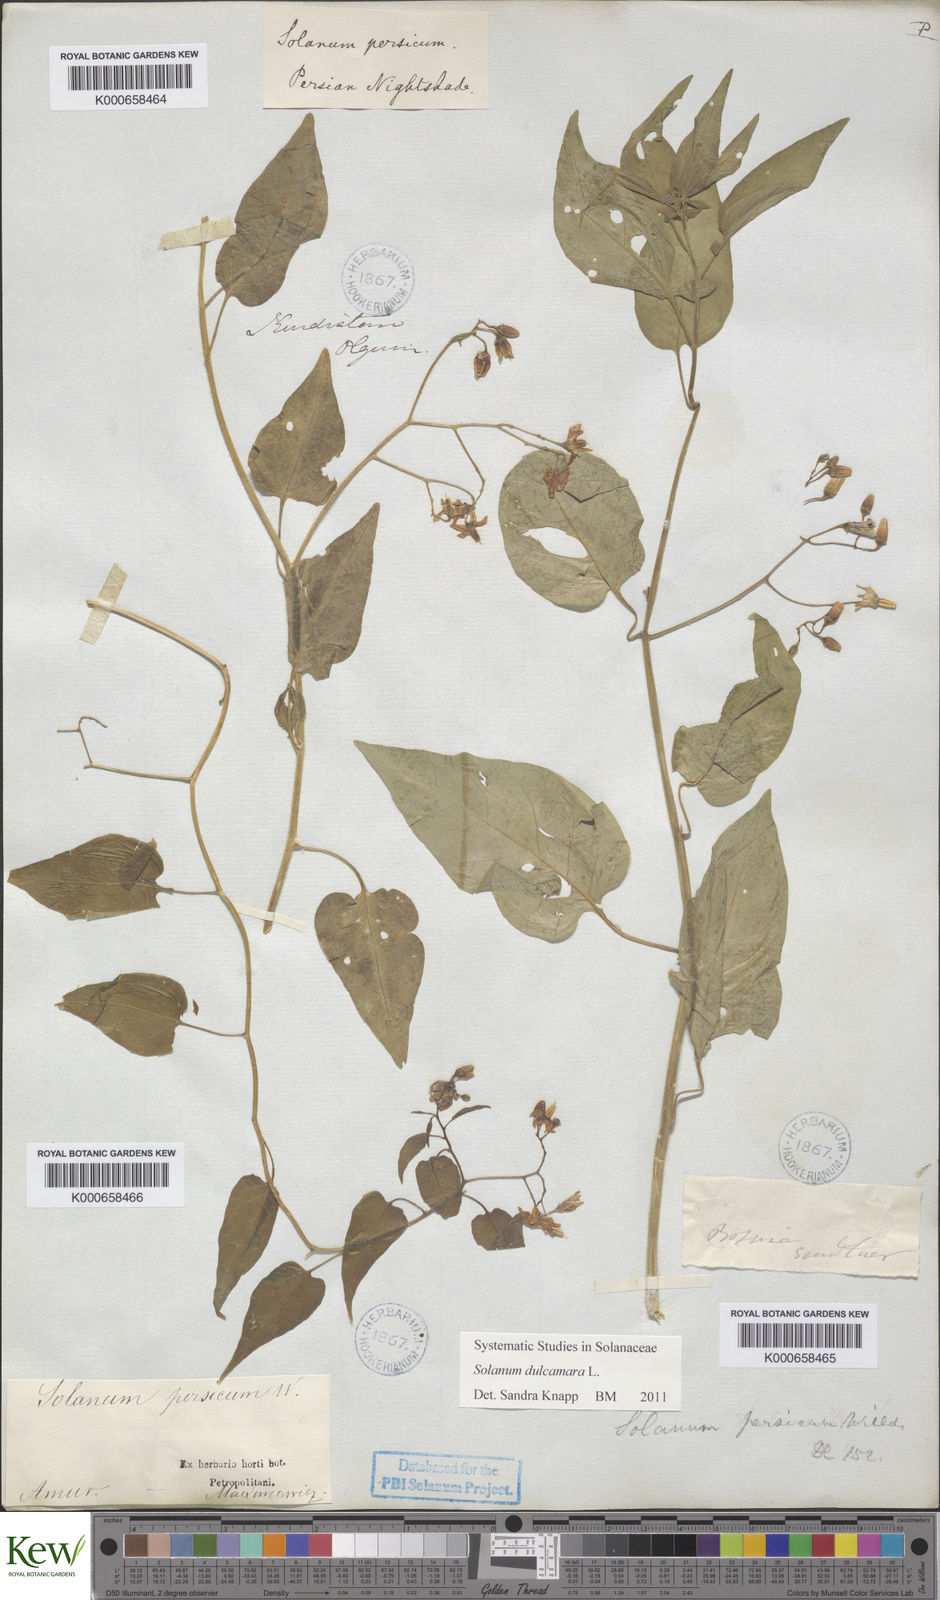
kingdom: Plantae
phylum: Tracheophyta
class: Magnoliopsida
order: Solanales
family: Solanaceae
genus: Solanum
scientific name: Solanum coriaceum
